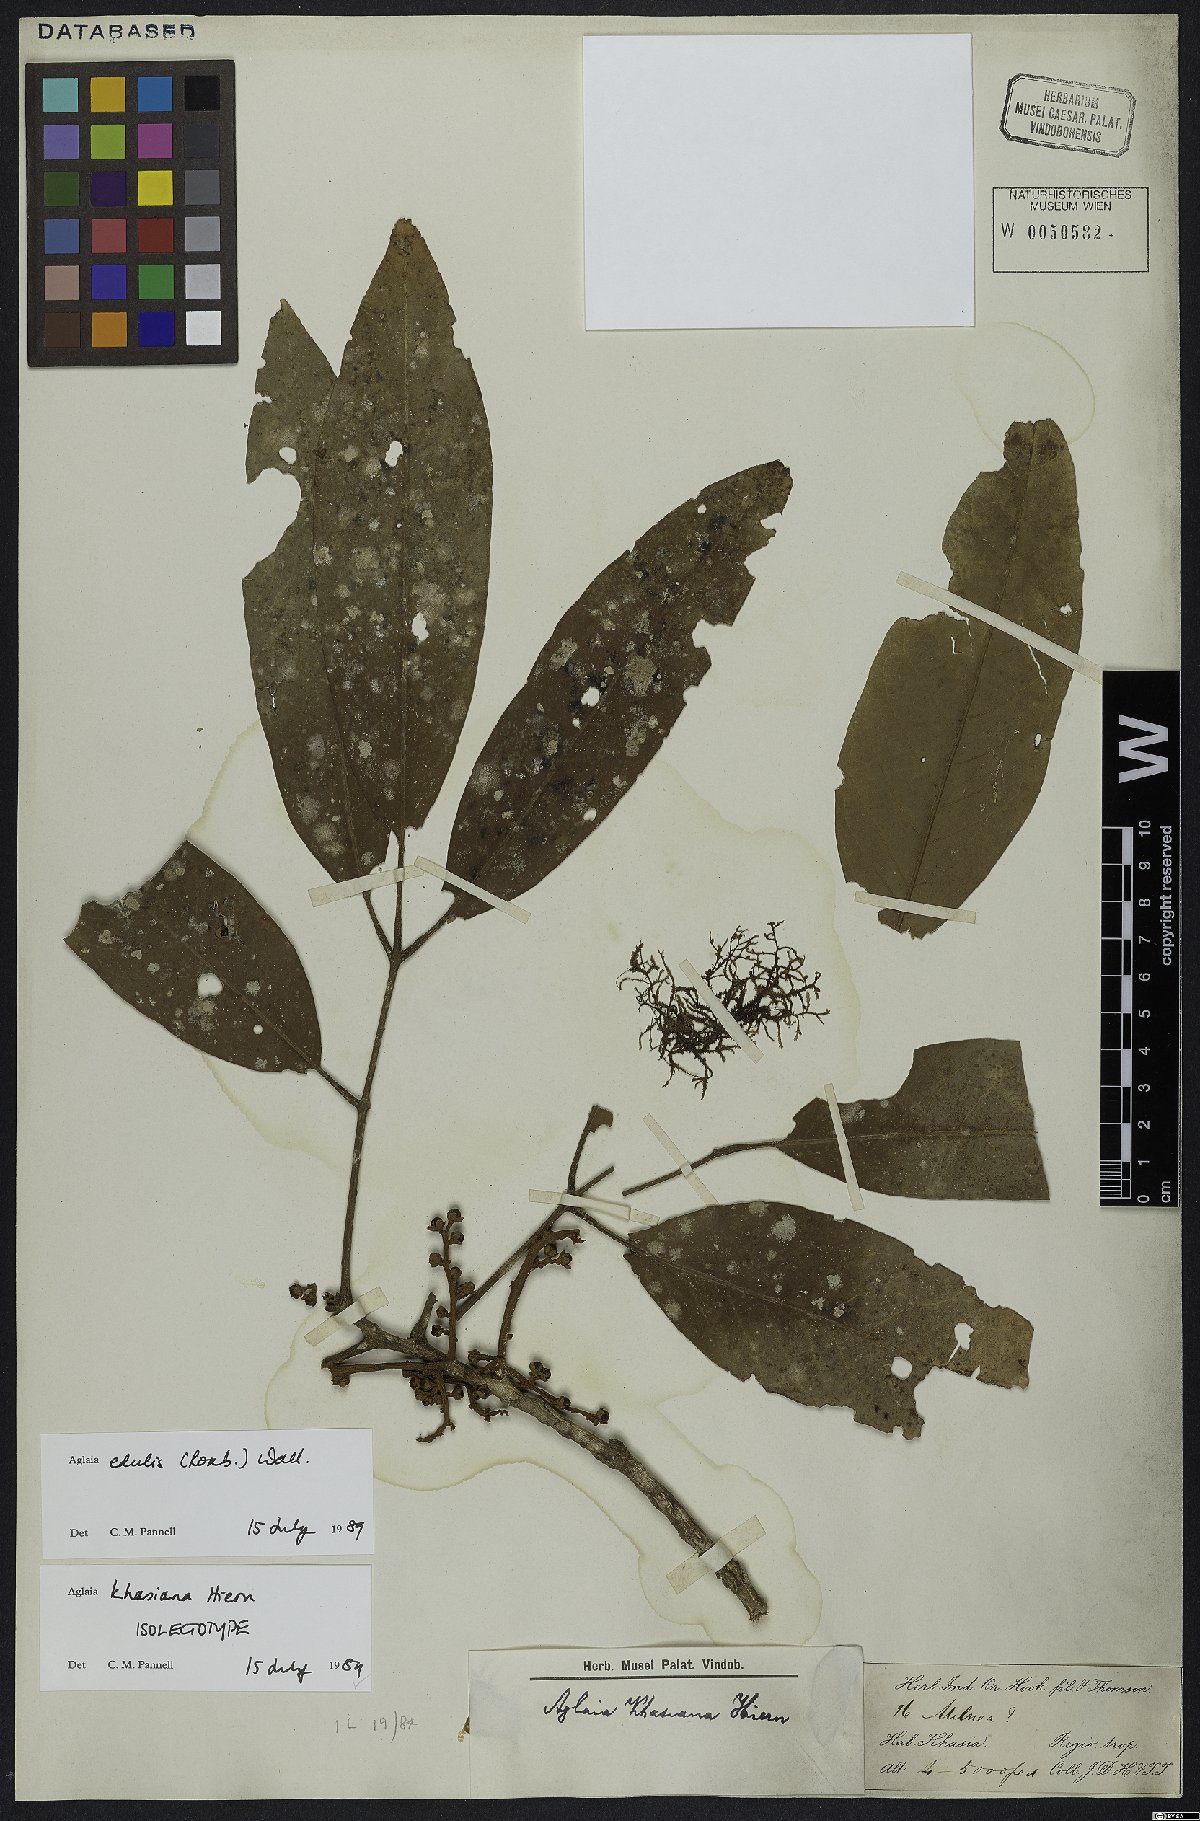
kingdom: Plantae
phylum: Tracheophyta
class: Magnoliopsida
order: Sapindales
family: Meliaceae
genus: Aglaia
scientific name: Aglaia edulis
